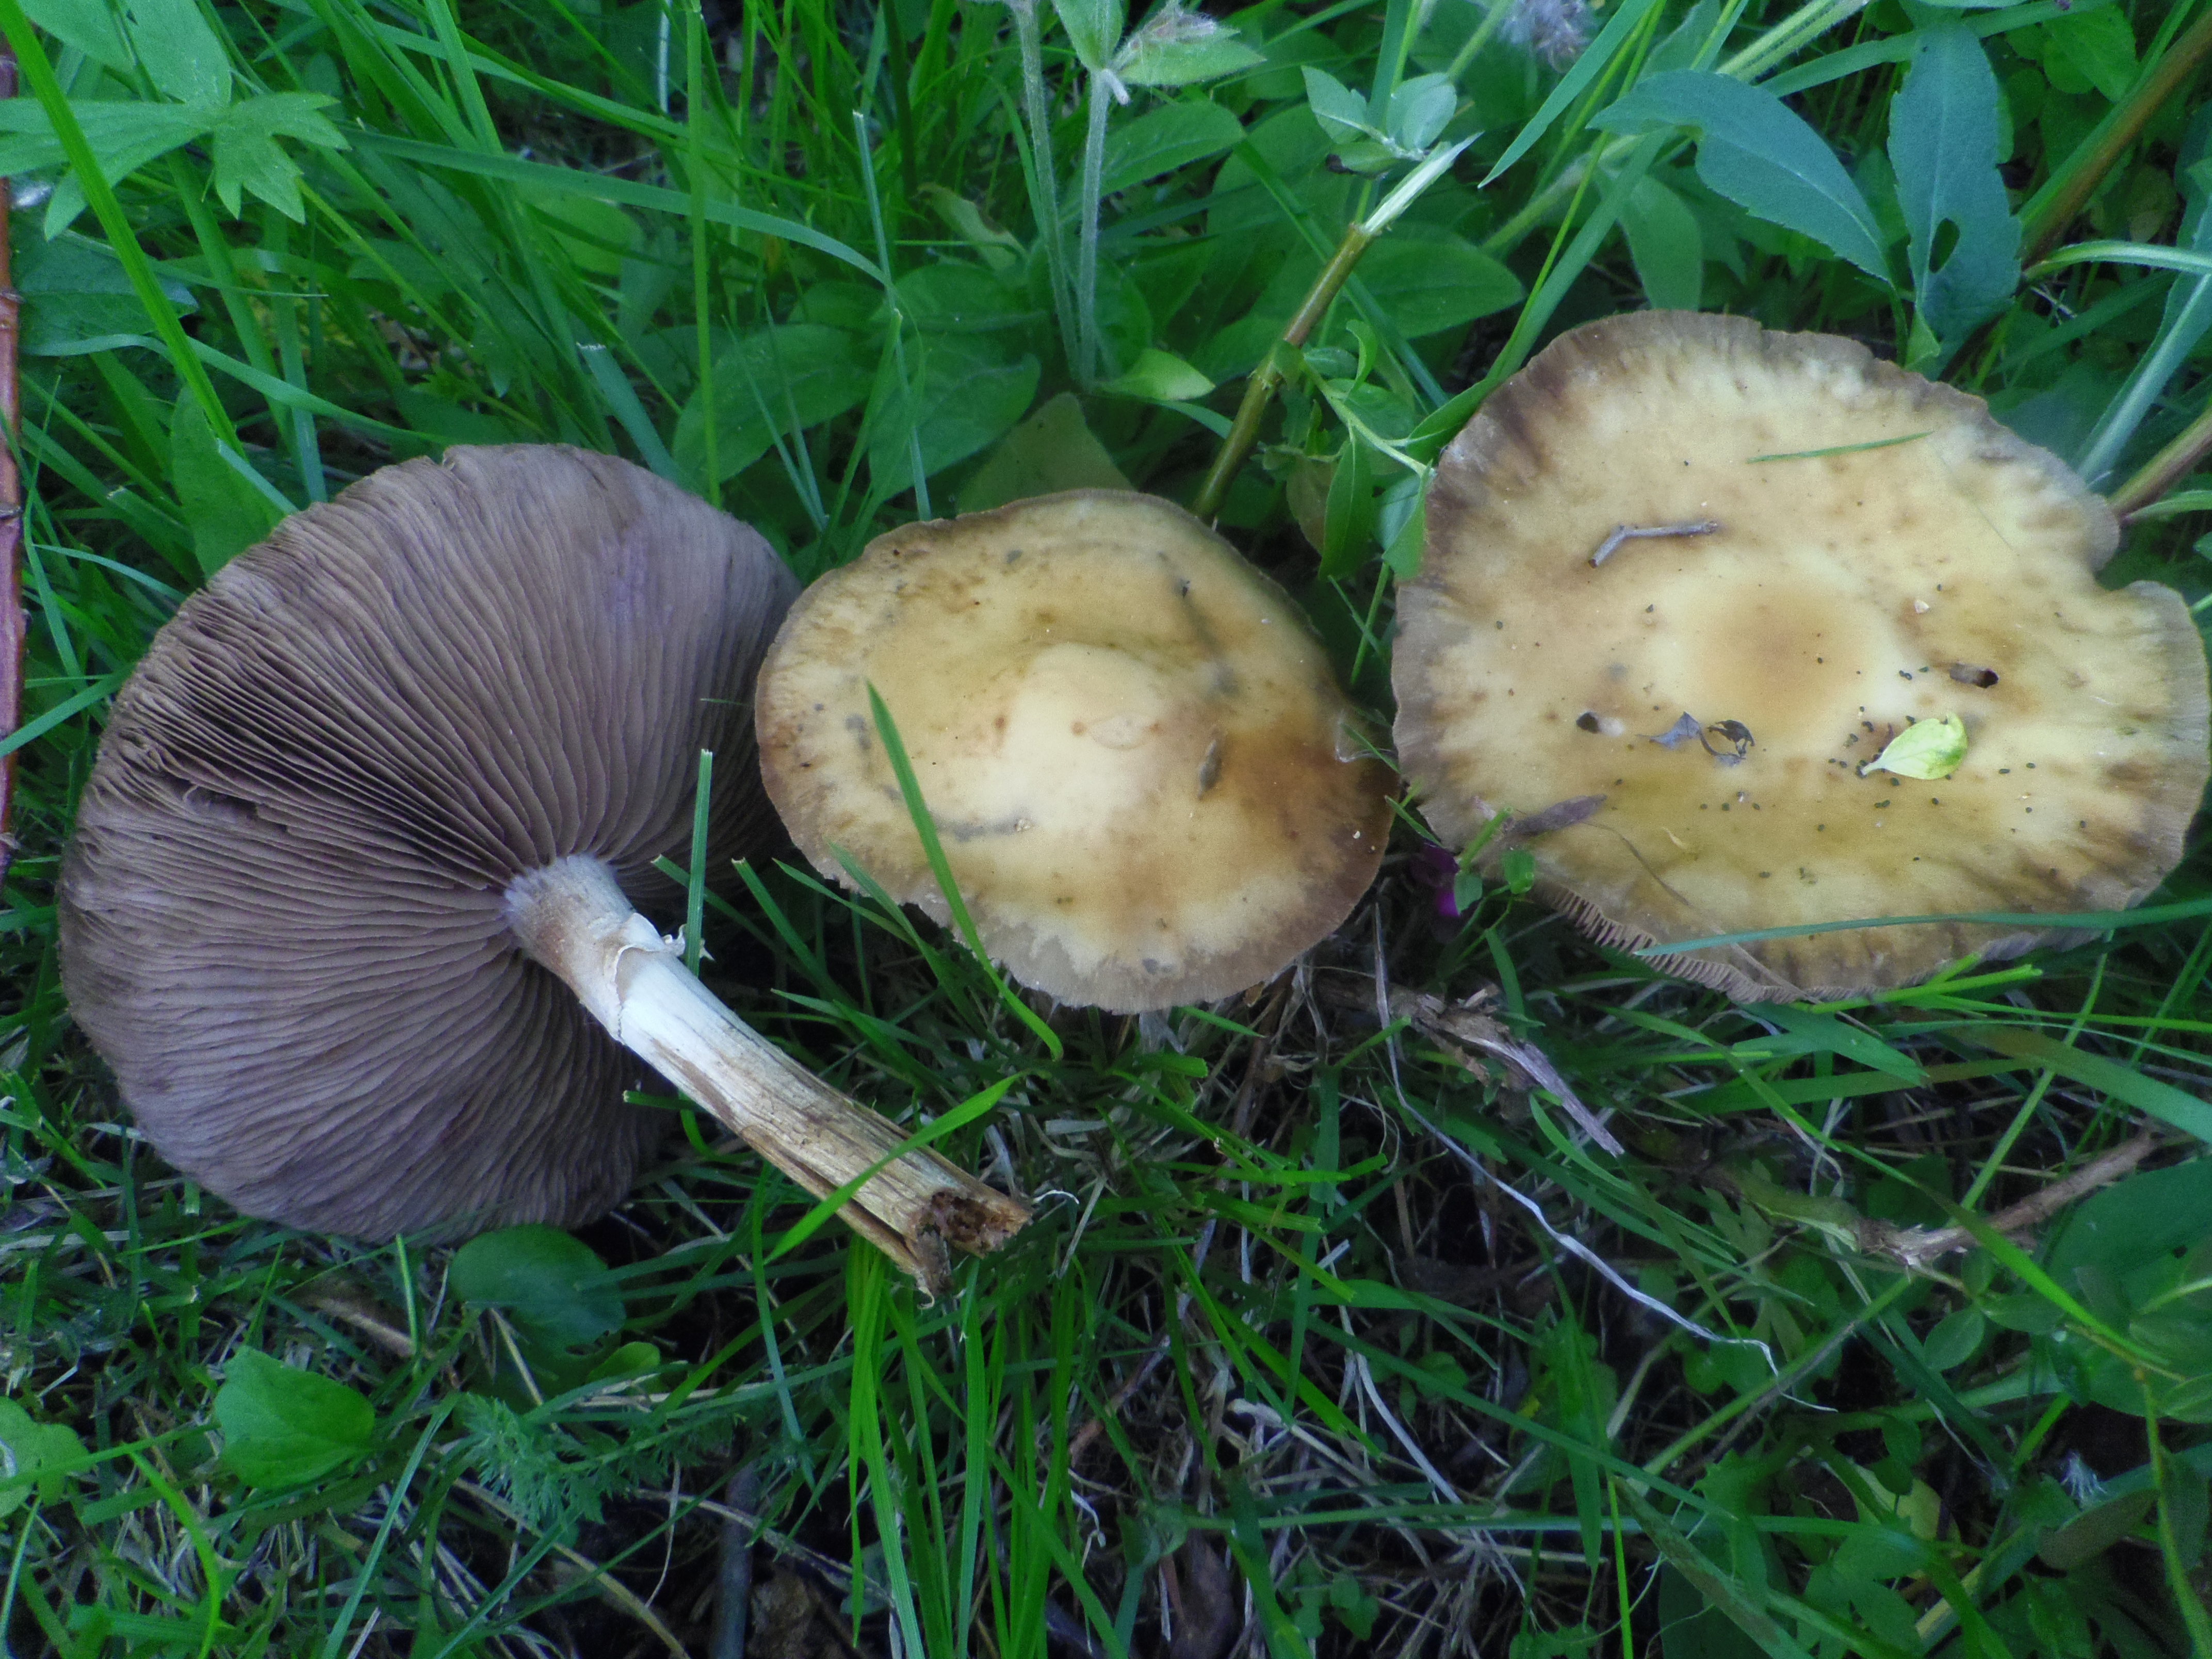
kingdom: Fungi
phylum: Basidiomycota
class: Agaricomycetes
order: Agaricales
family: Strophariaceae
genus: Agrocybe
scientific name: Agrocybe praecox
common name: Spring fieldcap
